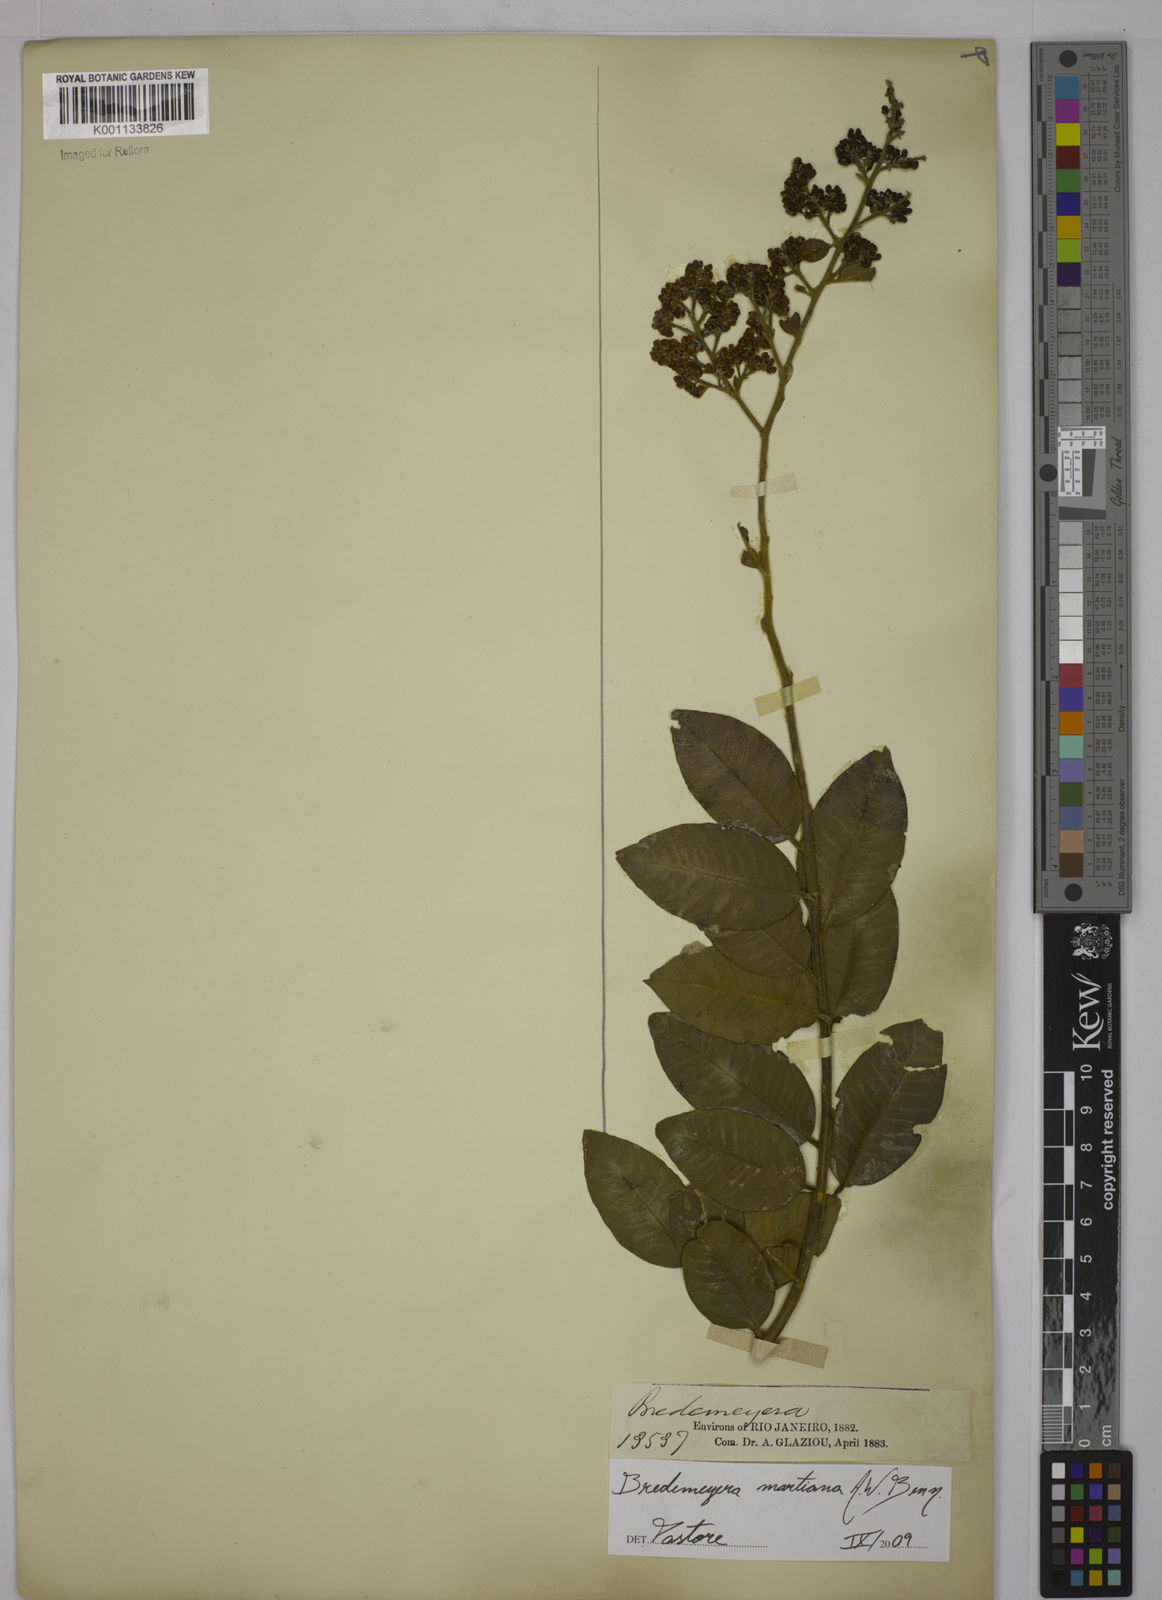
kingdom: Plantae
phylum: Tracheophyta
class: Magnoliopsida
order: Fabales
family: Polygalaceae
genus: Bredemeyera
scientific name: Bredemeyera martiana
